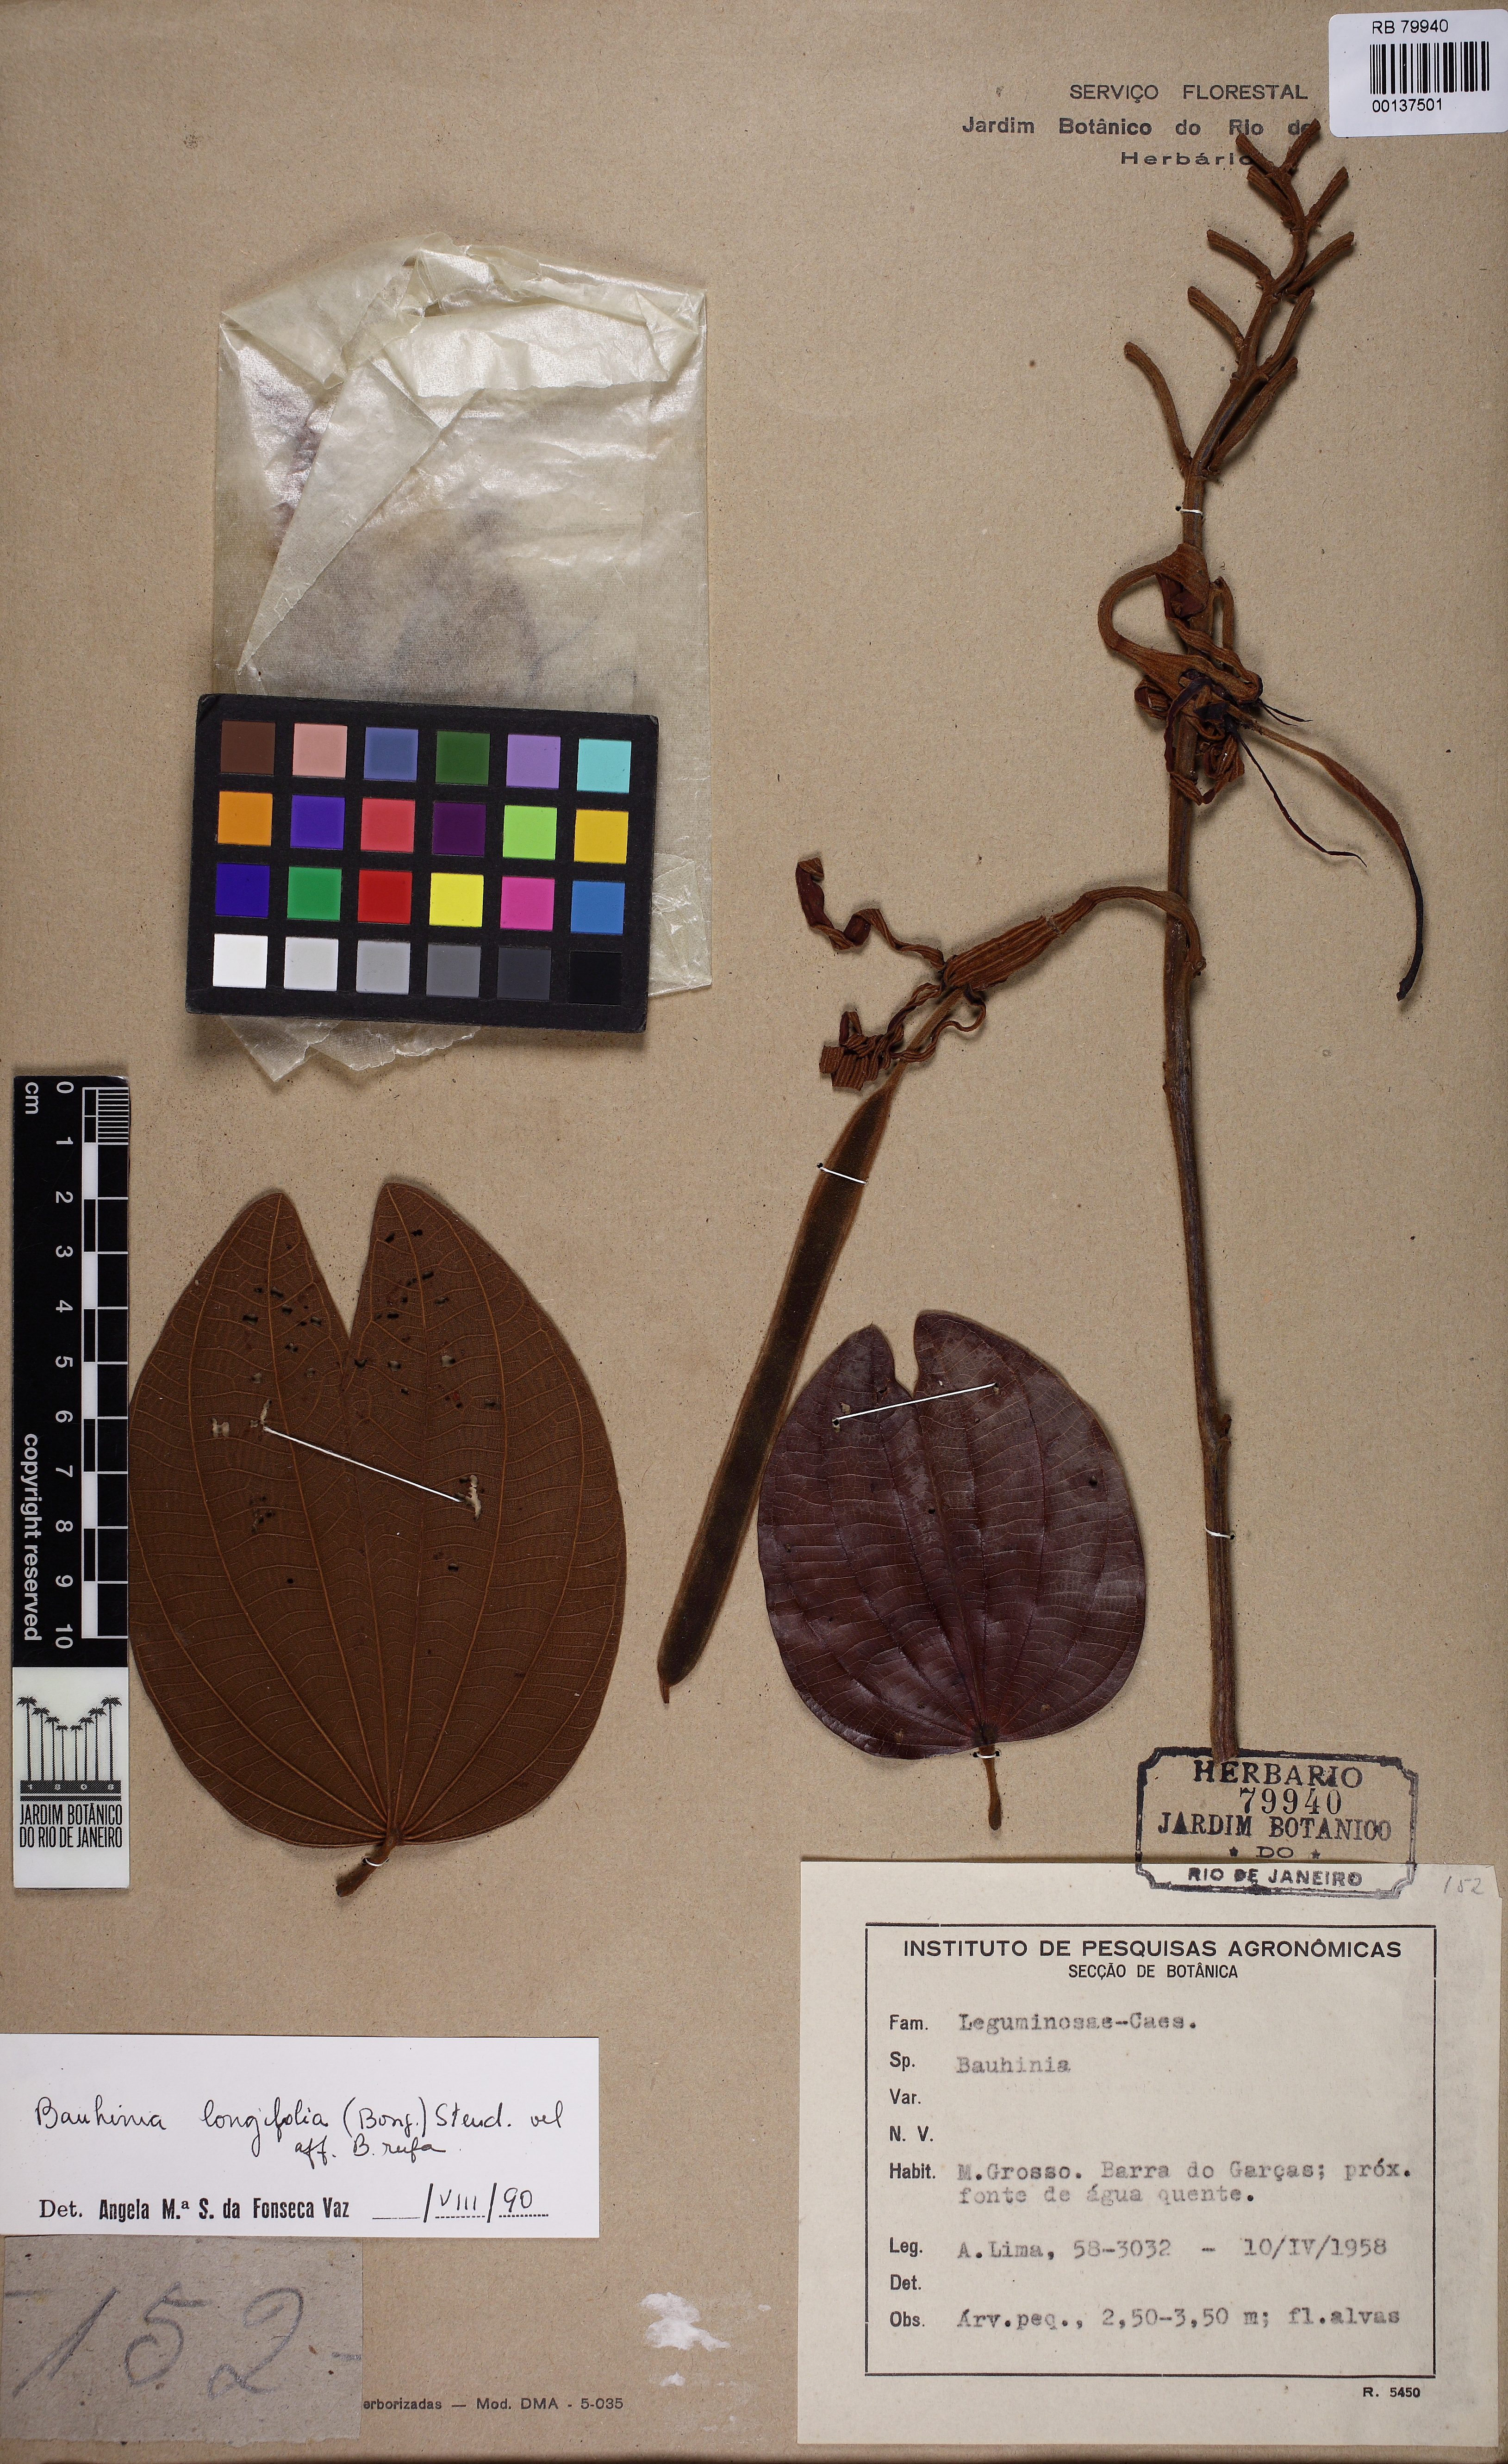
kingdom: Plantae
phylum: Tracheophyta
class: Magnoliopsida
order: Fabales
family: Fabaceae
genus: Bauhinia
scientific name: Bauhinia longifolia
